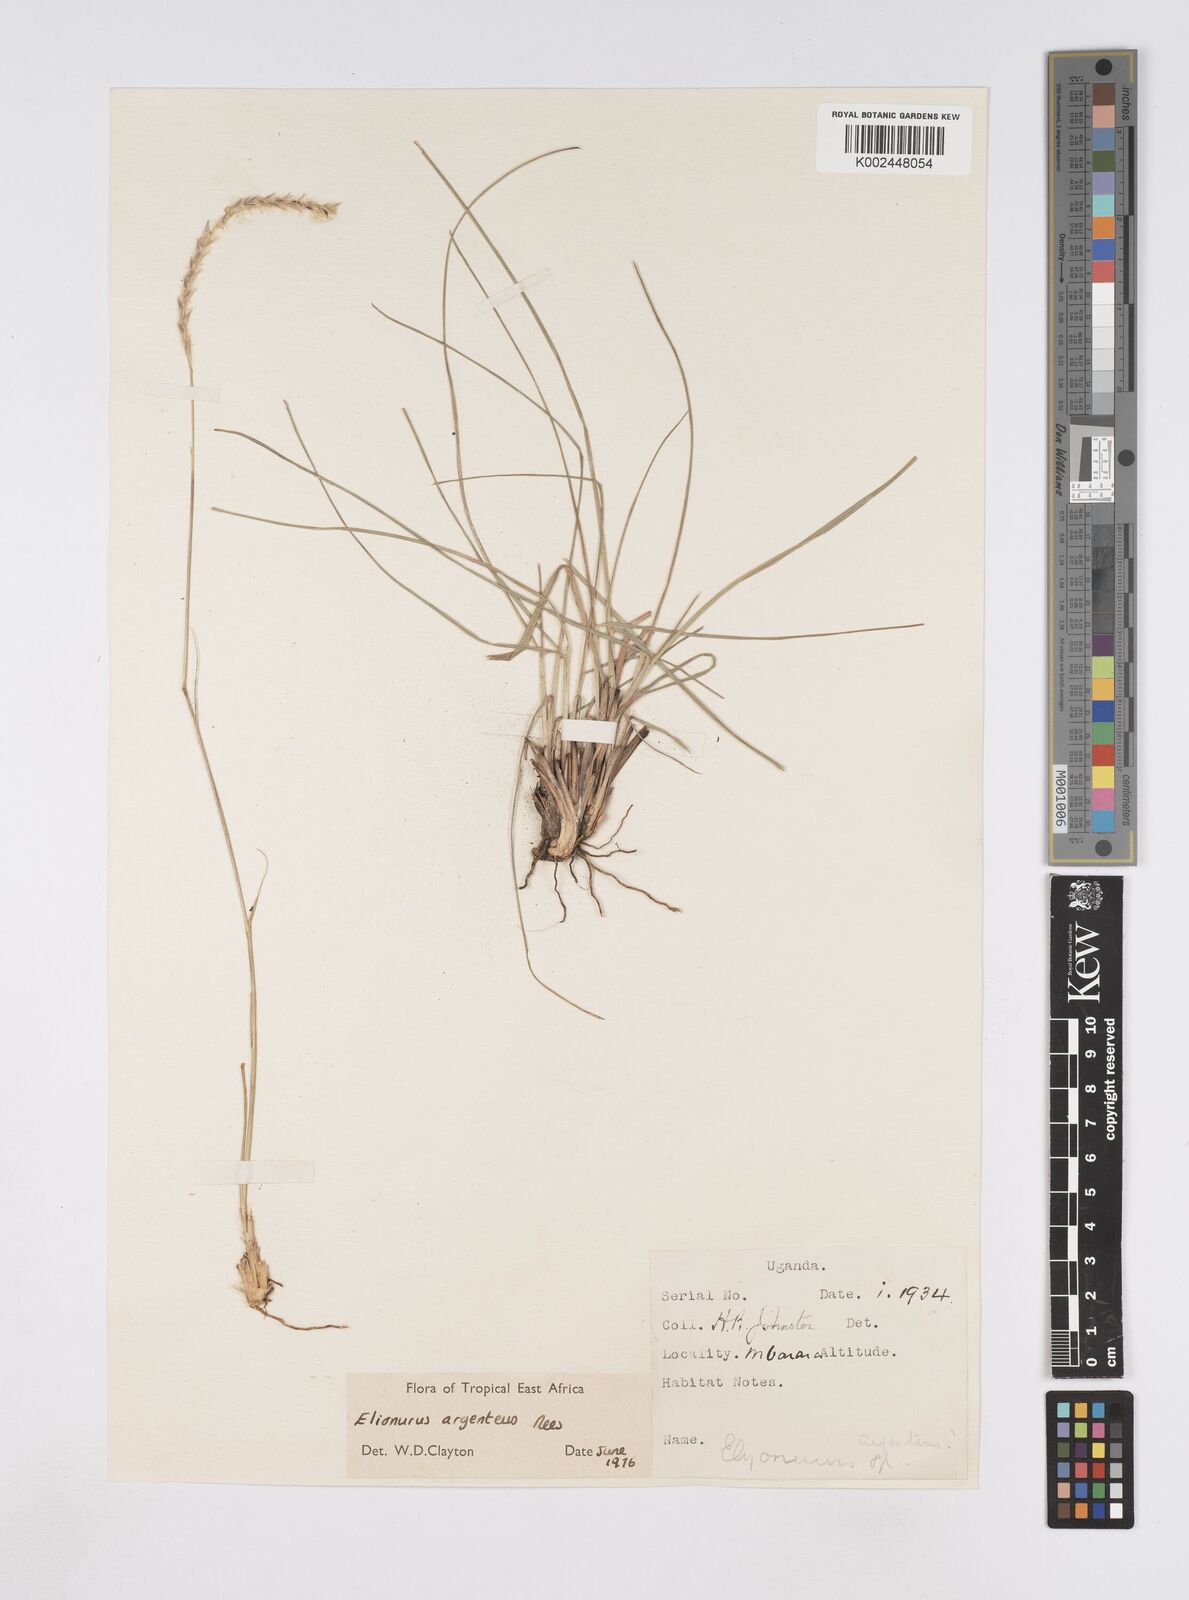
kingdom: Plantae
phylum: Tracheophyta
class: Liliopsida
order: Poales
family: Poaceae
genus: Elionurus
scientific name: Elionurus muticus
